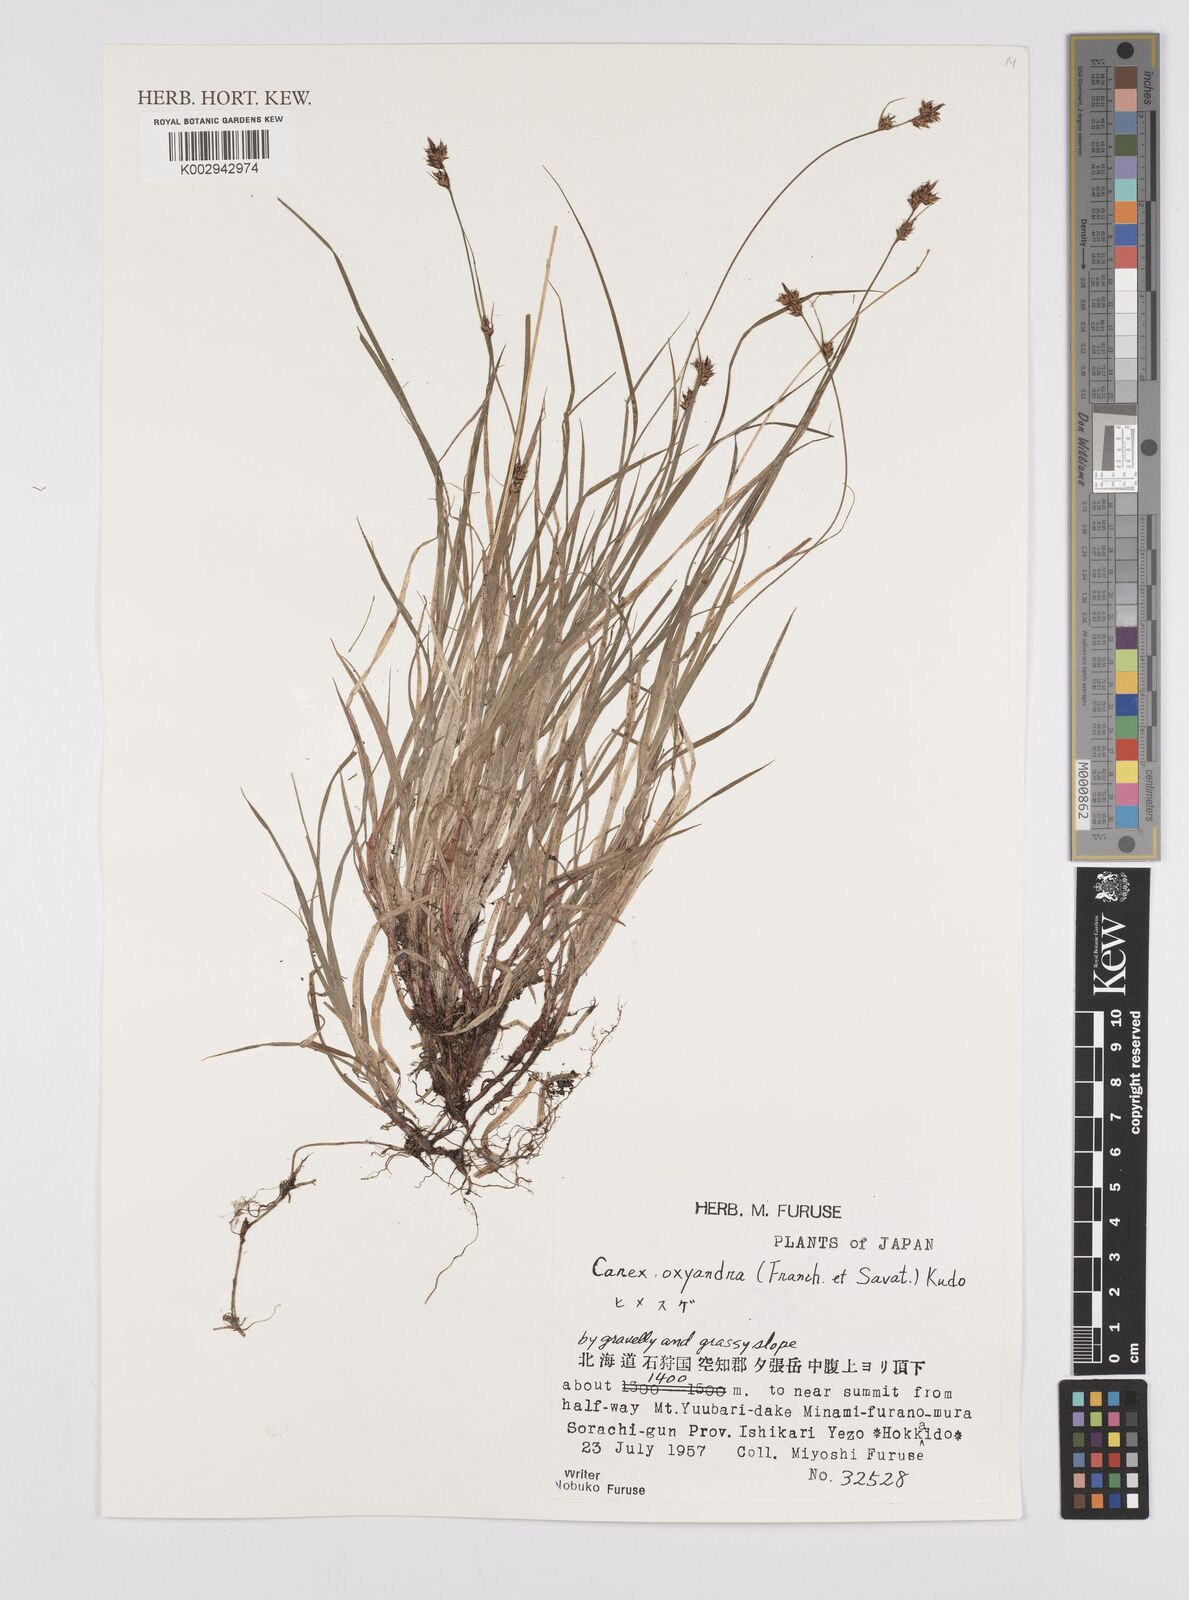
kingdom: Plantae
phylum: Tracheophyta
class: Liliopsida
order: Poales
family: Cyperaceae
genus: Carex
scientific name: Carex oxyandra
